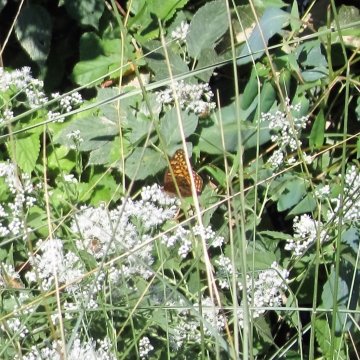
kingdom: Animalia
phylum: Arthropoda
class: Insecta
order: Lepidoptera
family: Nymphalidae
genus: Euptoieta
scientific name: Euptoieta claudia
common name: Variegated Fritillary
